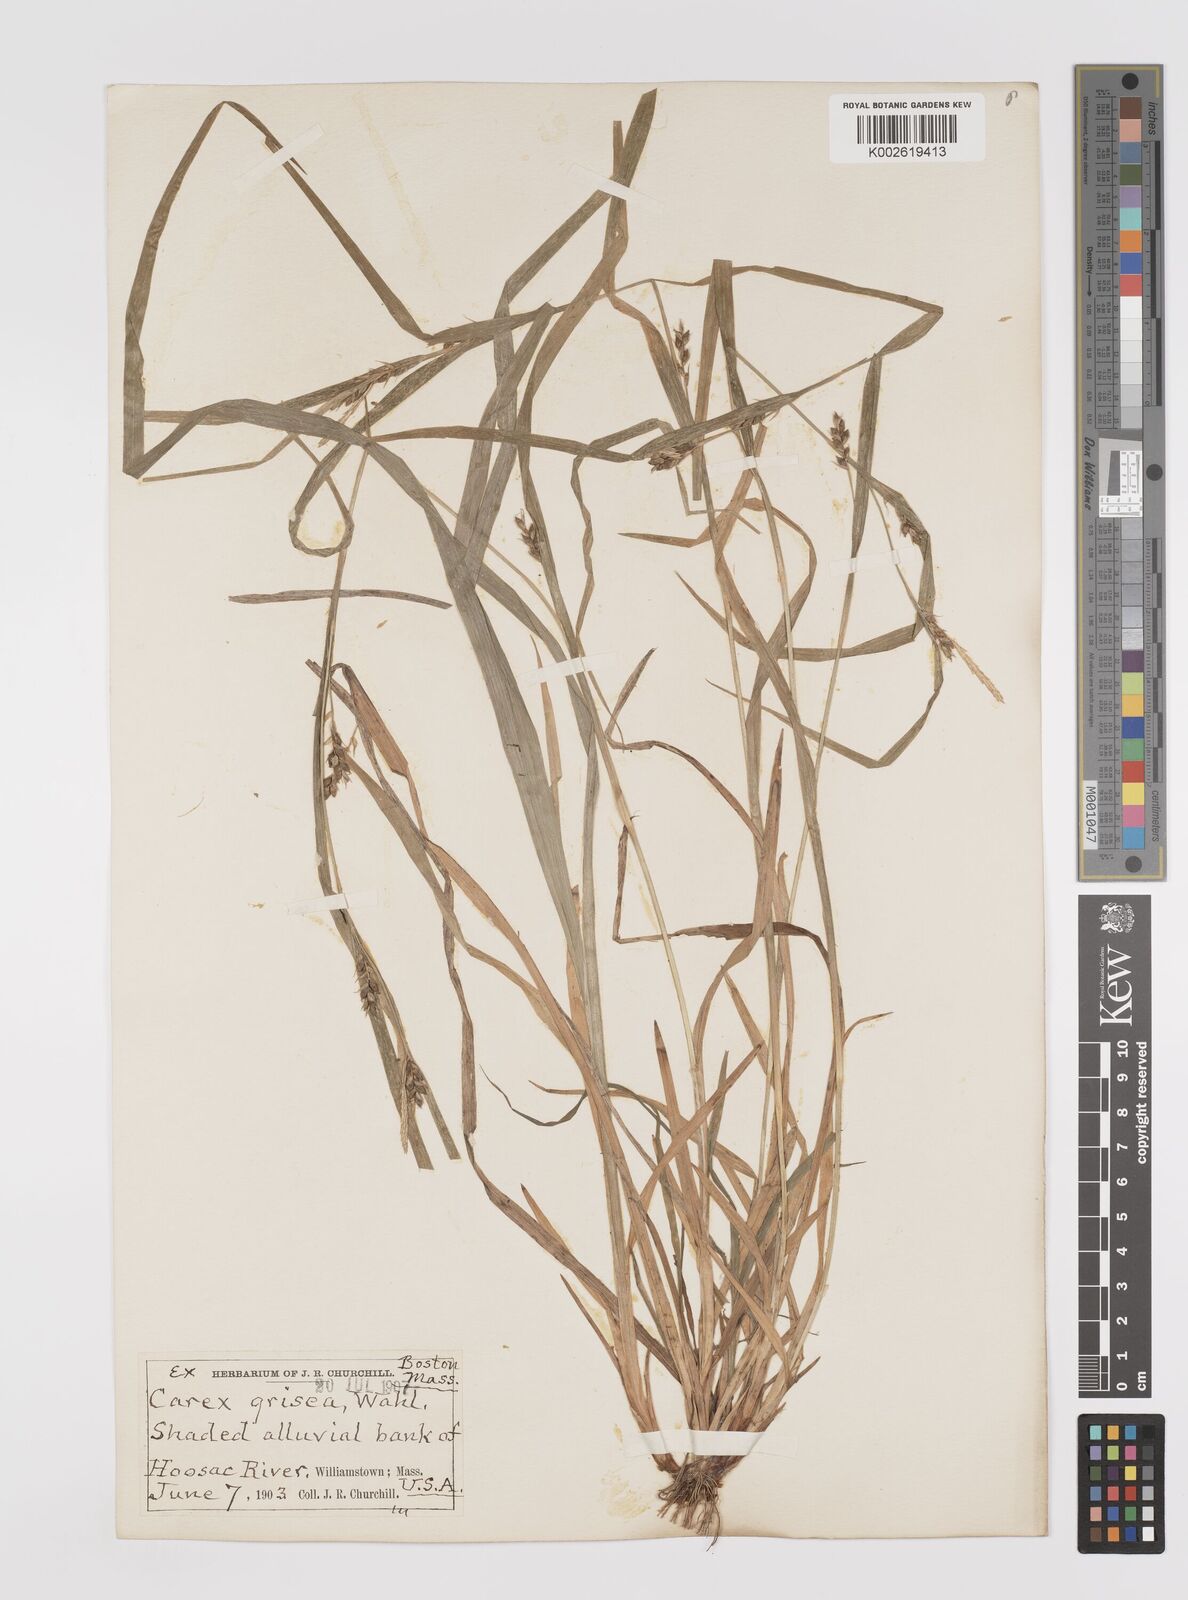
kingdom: Plantae
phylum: Tracheophyta
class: Liliopsida
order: Poales
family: Cyperaceae
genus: Carex
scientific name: Carex grisea
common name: Eastern narrow-leaved sedge
